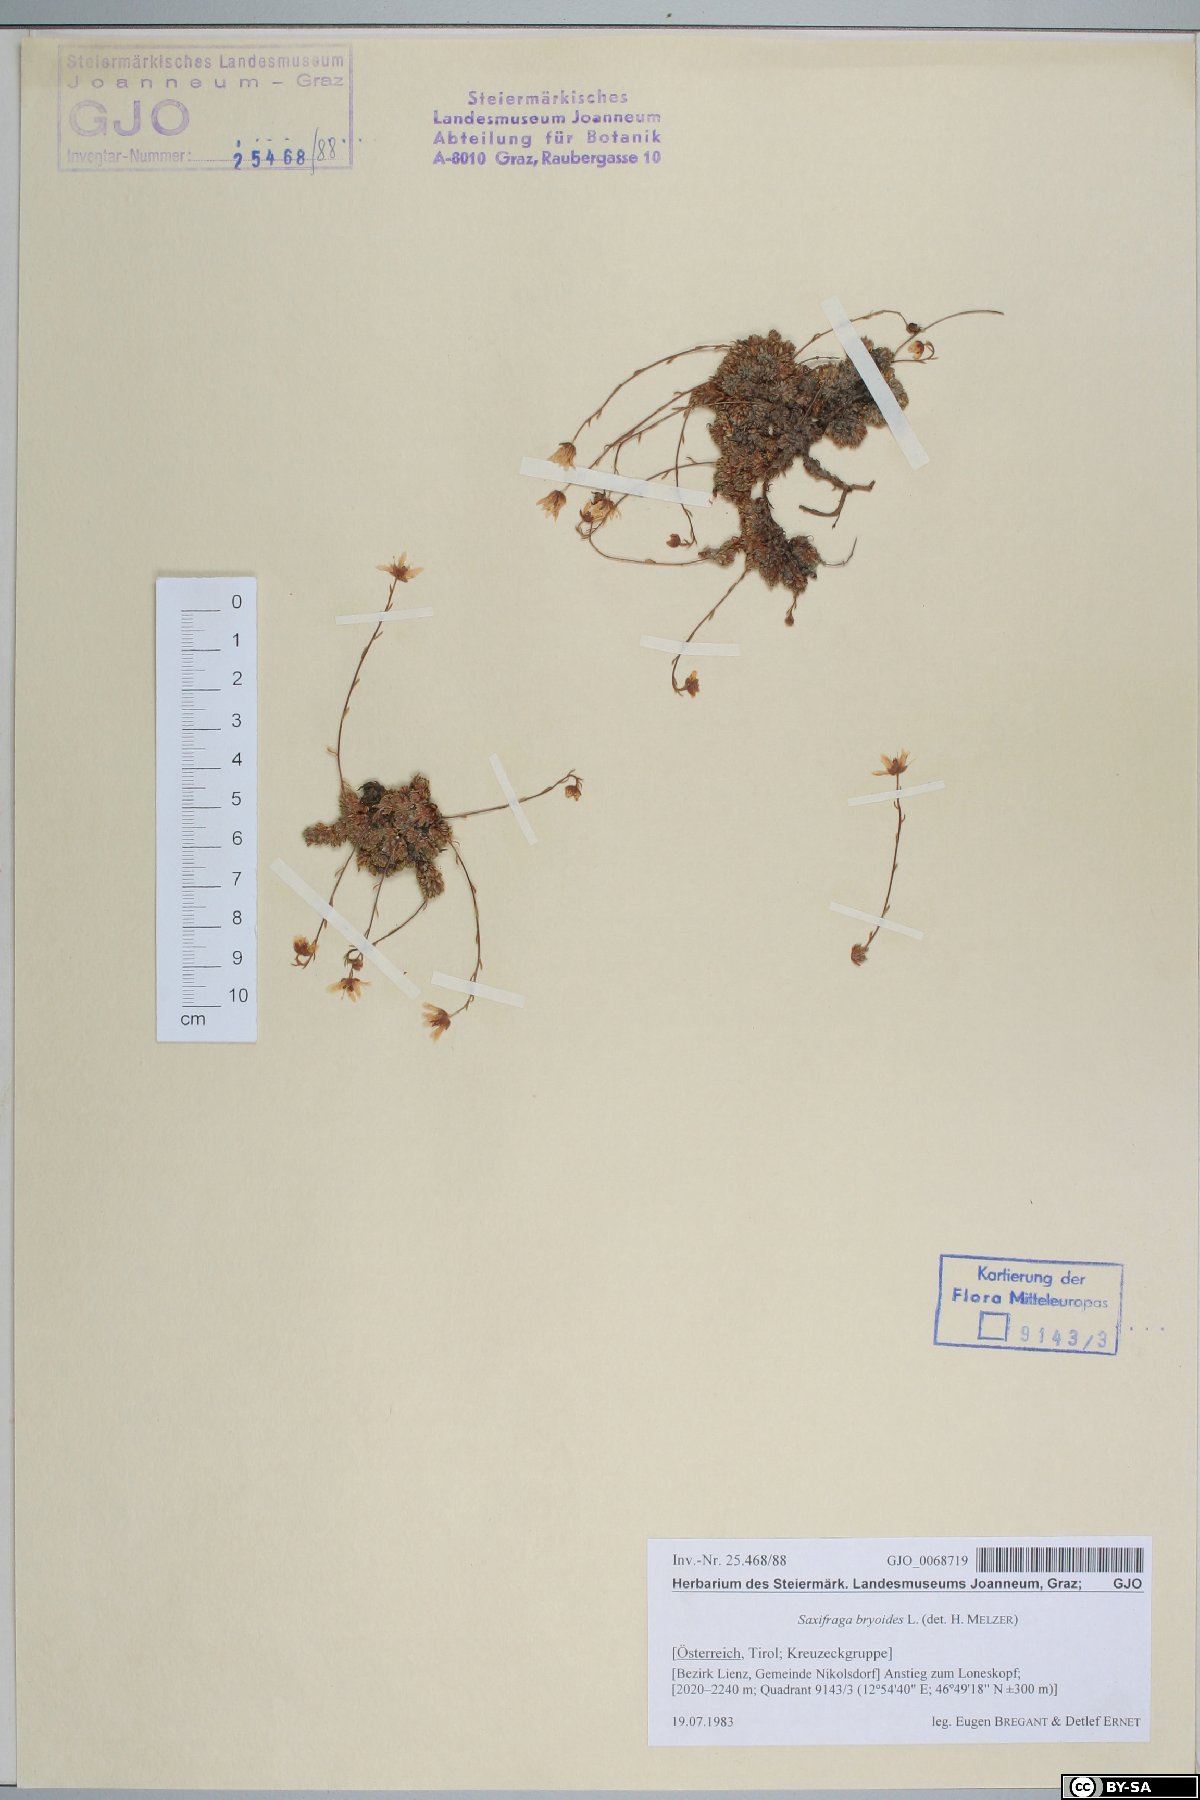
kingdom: Plantae
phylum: Tracheophyta
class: Magnoliopsida
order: Saxifragales
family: Saxifragaceae
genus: Saxifraga
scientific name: Saxifraga bryoides
